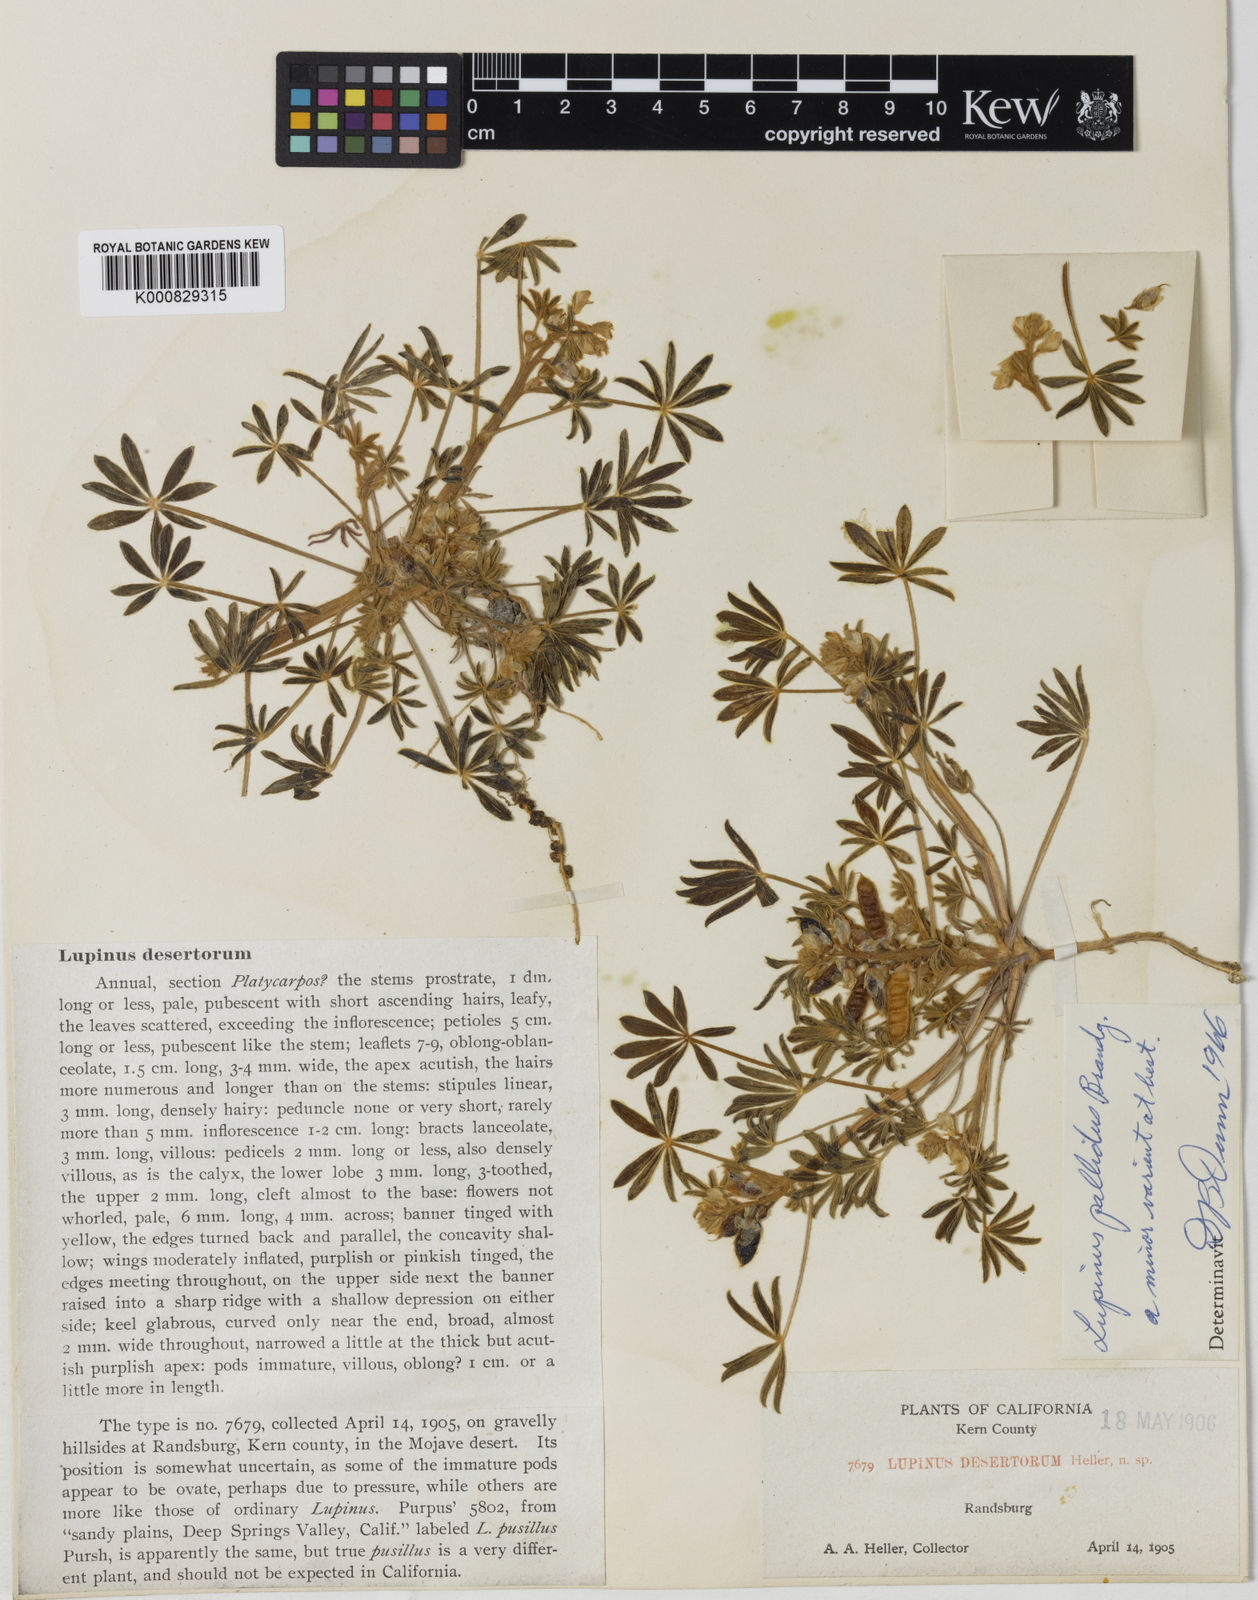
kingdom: Plantae
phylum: Tracheophyta
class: Magnoliopsida
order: Fabales
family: Fabaceae
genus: Lupinus
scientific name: Lupinus pallidus
